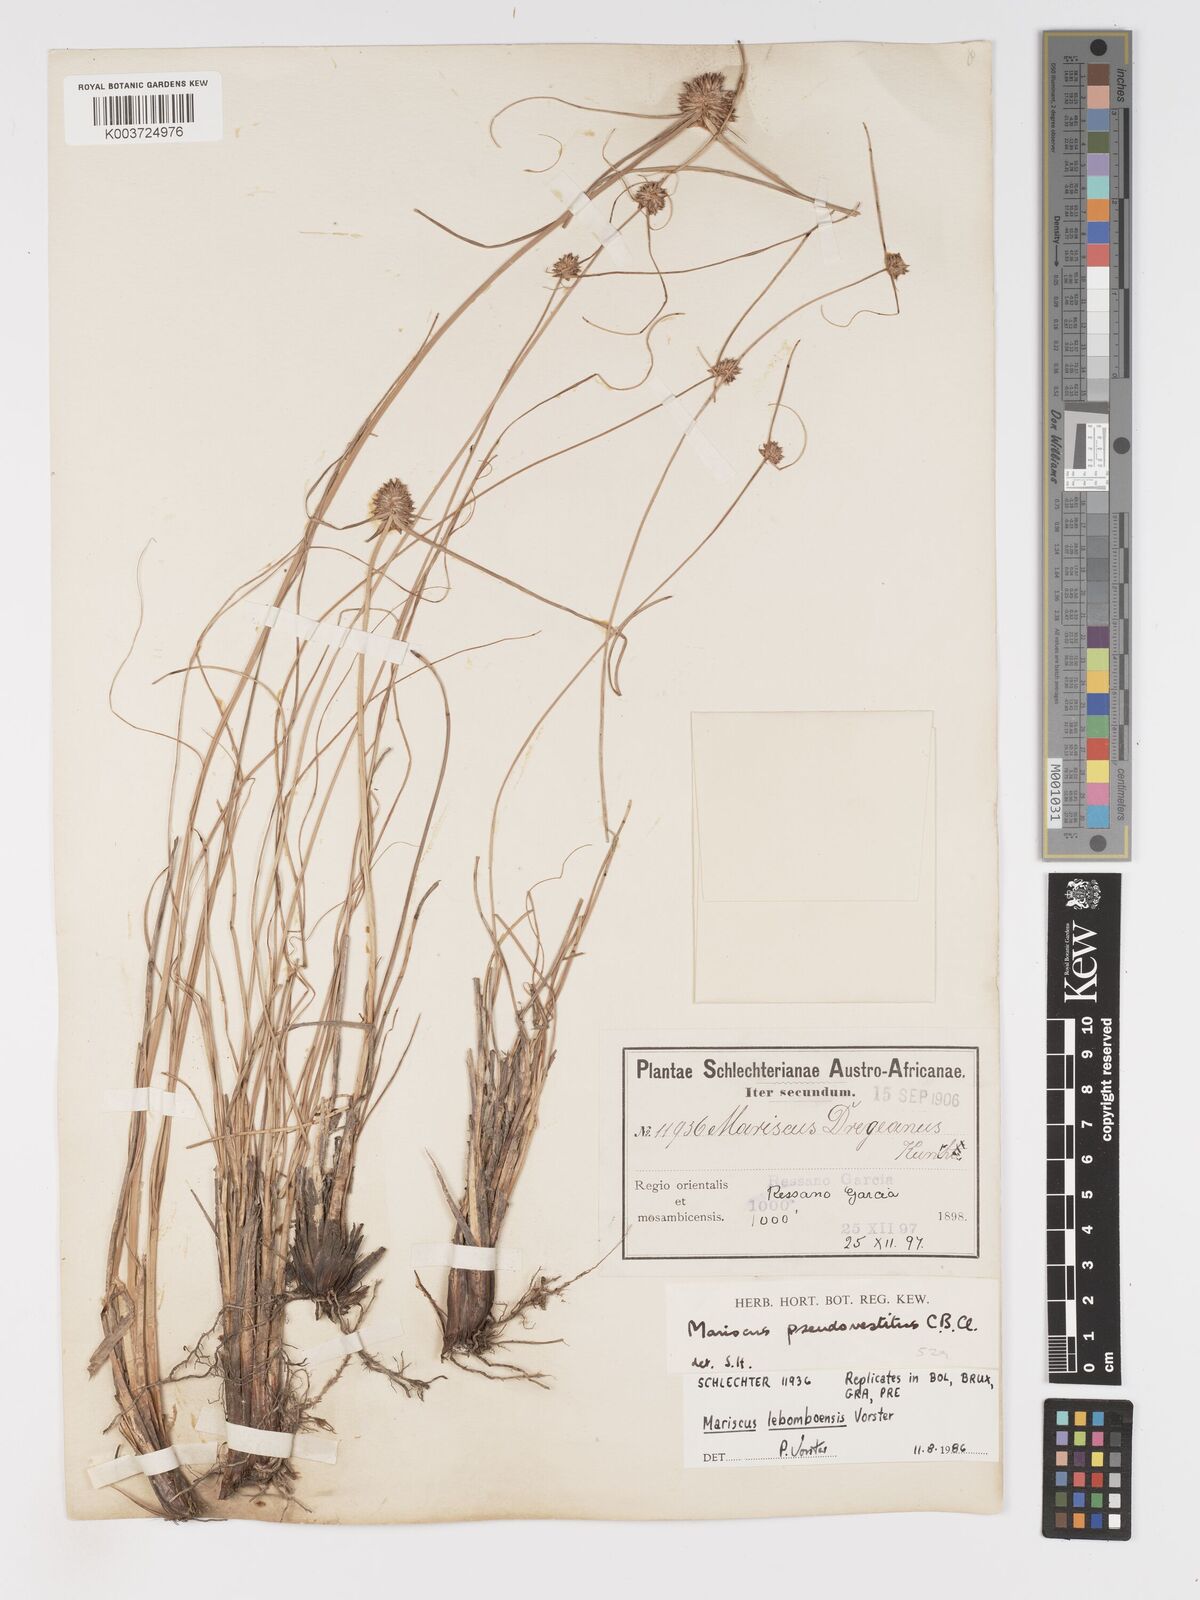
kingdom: Plantae
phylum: Tracheophyta
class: Liliopsida
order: Poales
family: Cyperaceae
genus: Cyperus
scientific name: Cyperus pseudovestitus
